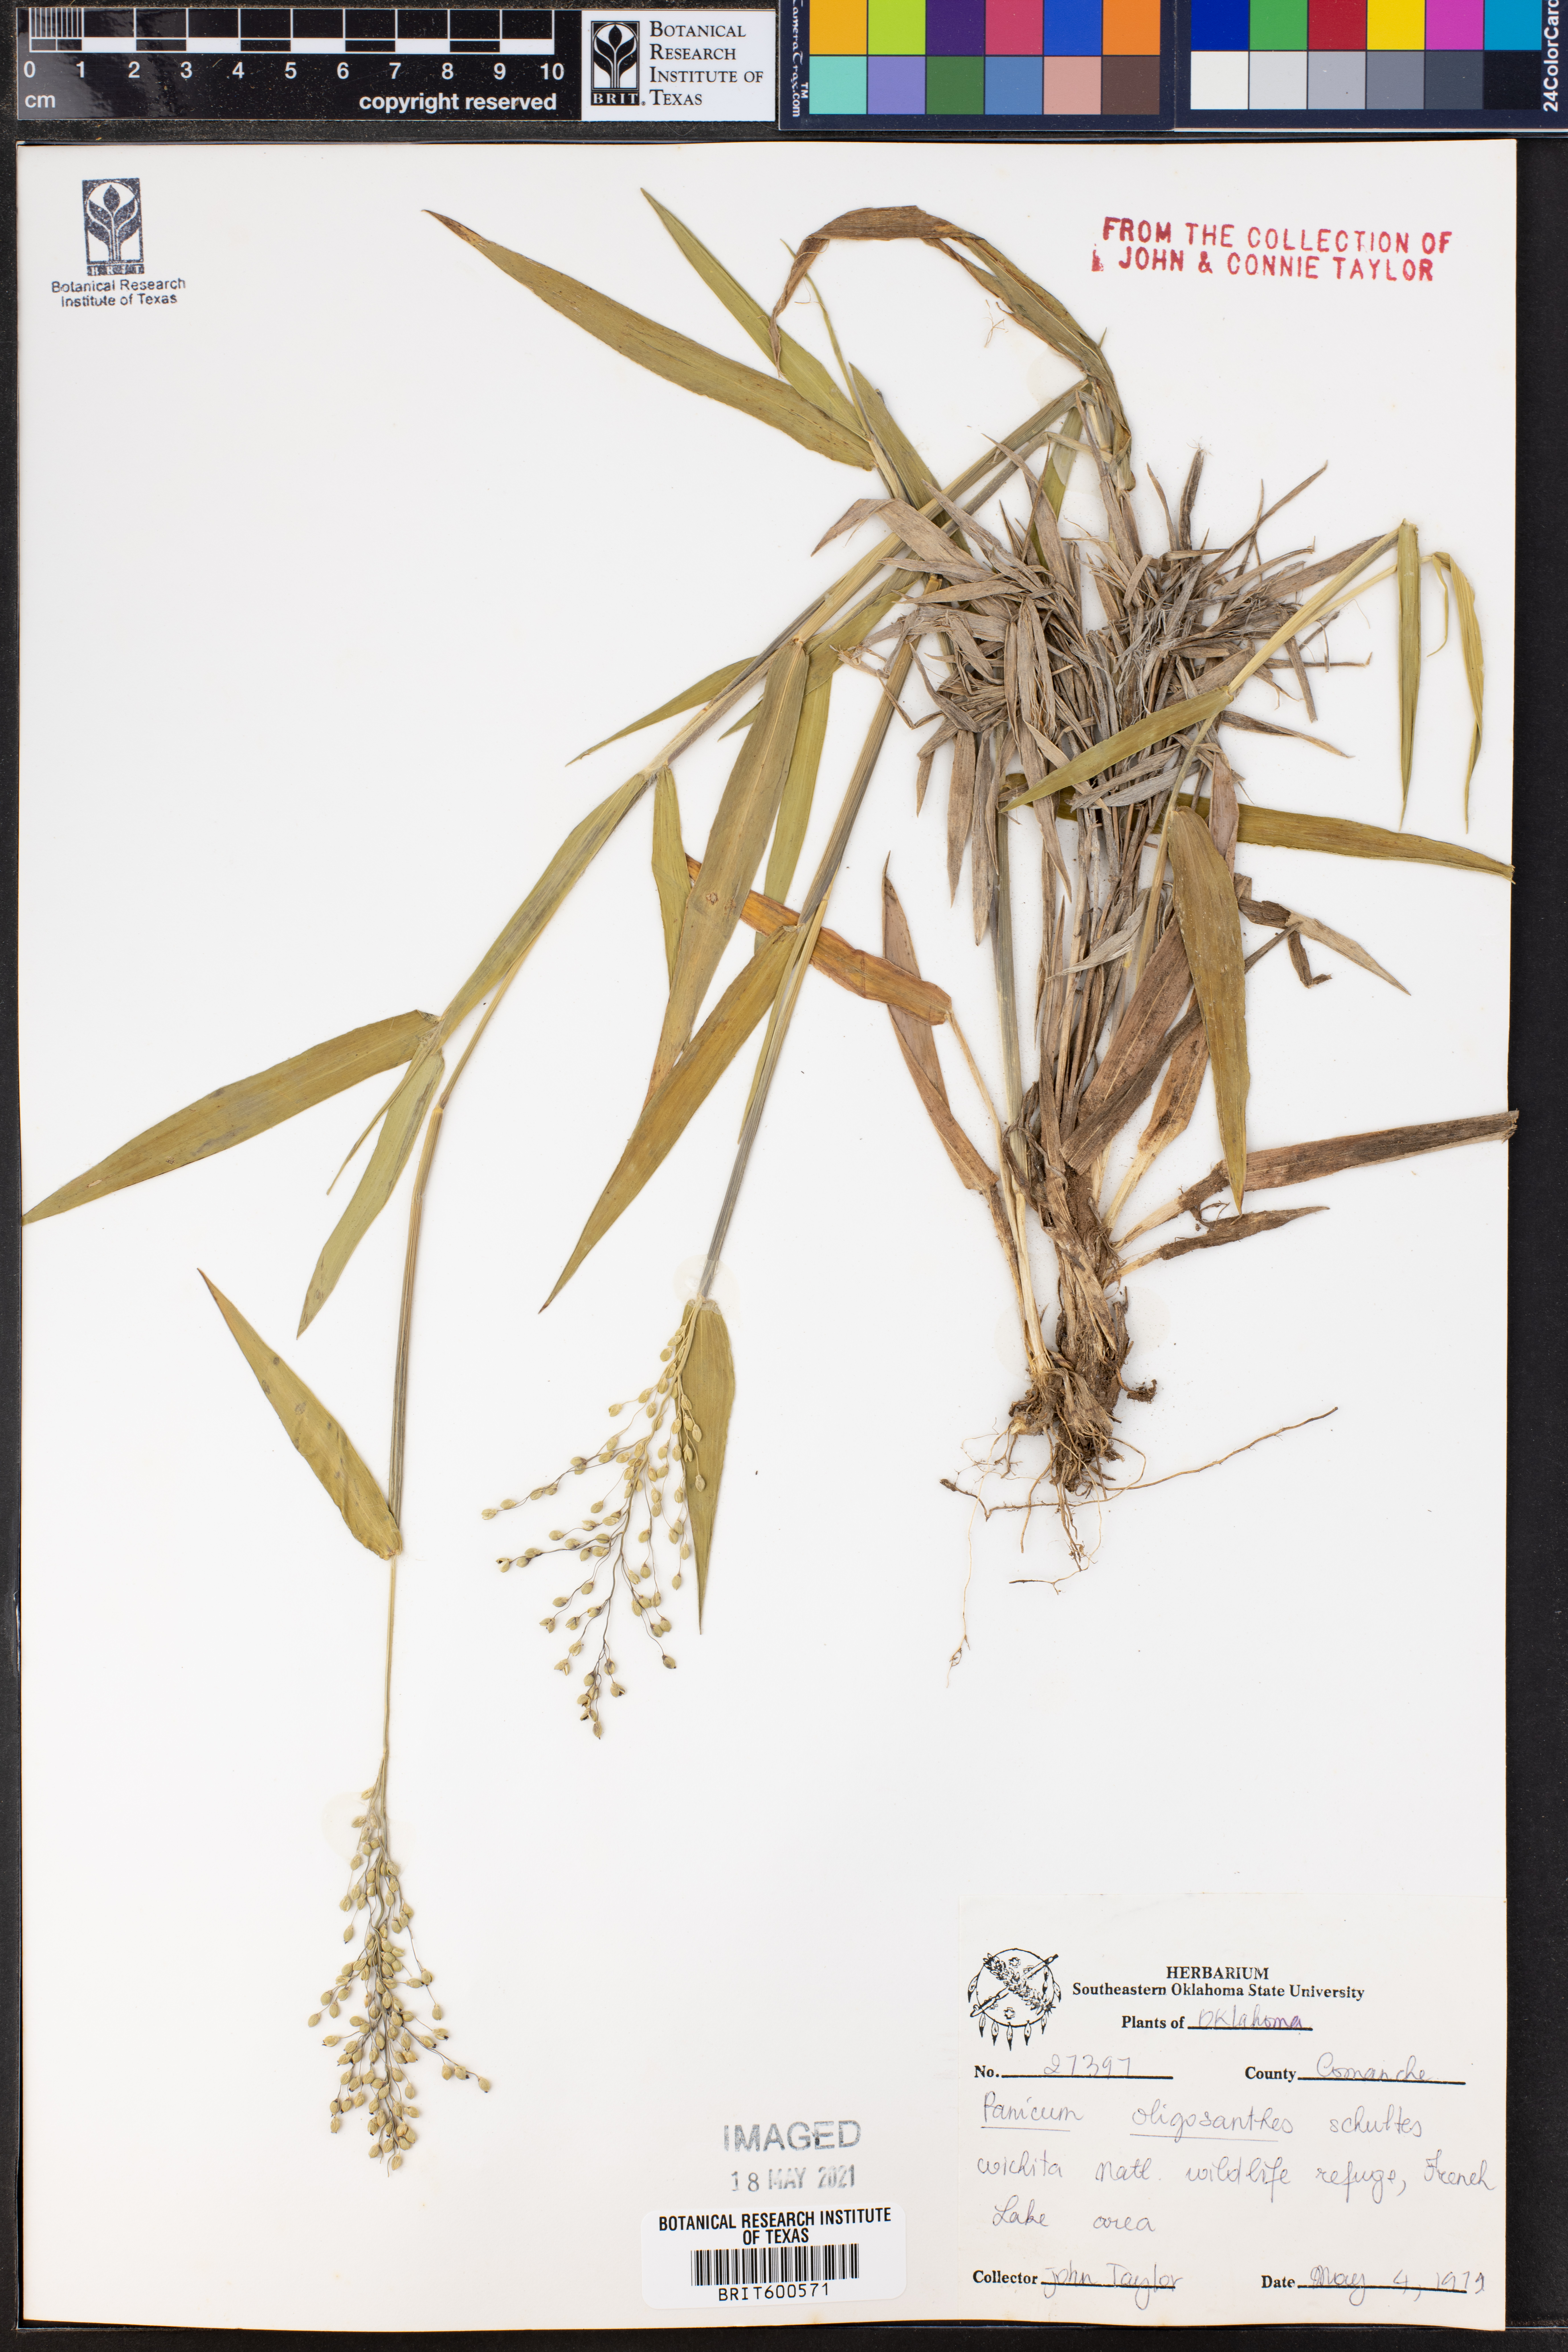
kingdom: Plantae
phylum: Tracheophyta
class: Liliopsida
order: Poales
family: Poaceae
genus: Dichanthelium
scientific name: Dichanthelium oligosanthes
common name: Few-anther obscuregrass
